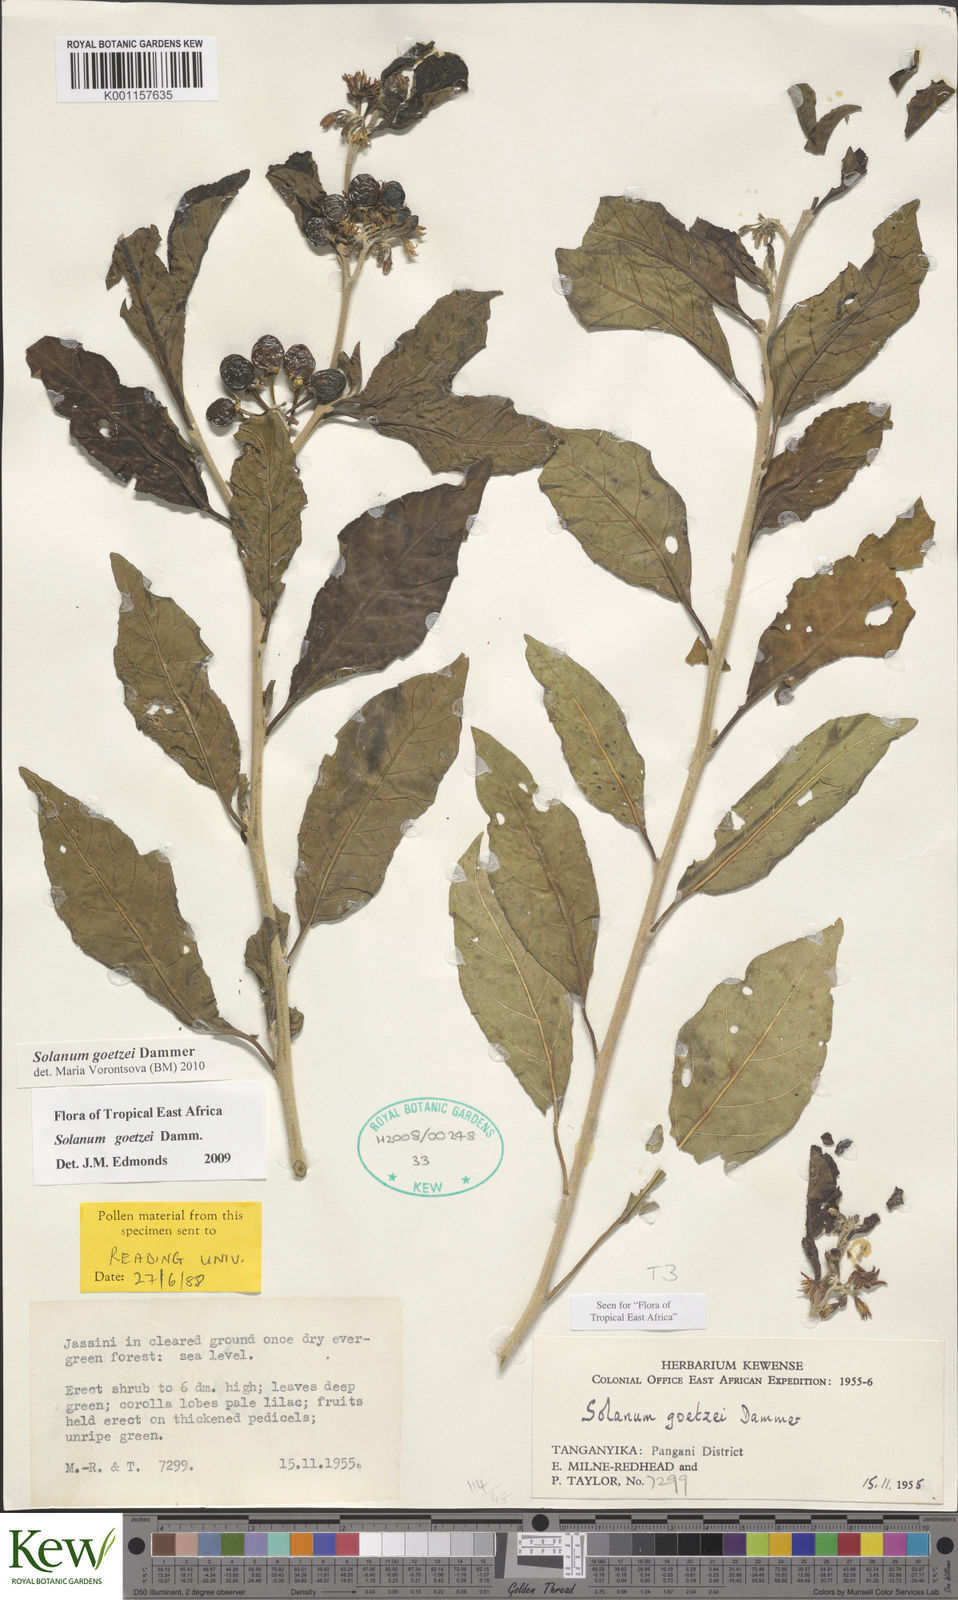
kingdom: Plantae
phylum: Tracheophyta
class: Magnoliopsida
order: Solanales
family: Solanaceae
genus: Solanum
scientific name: Solanum goetzei
